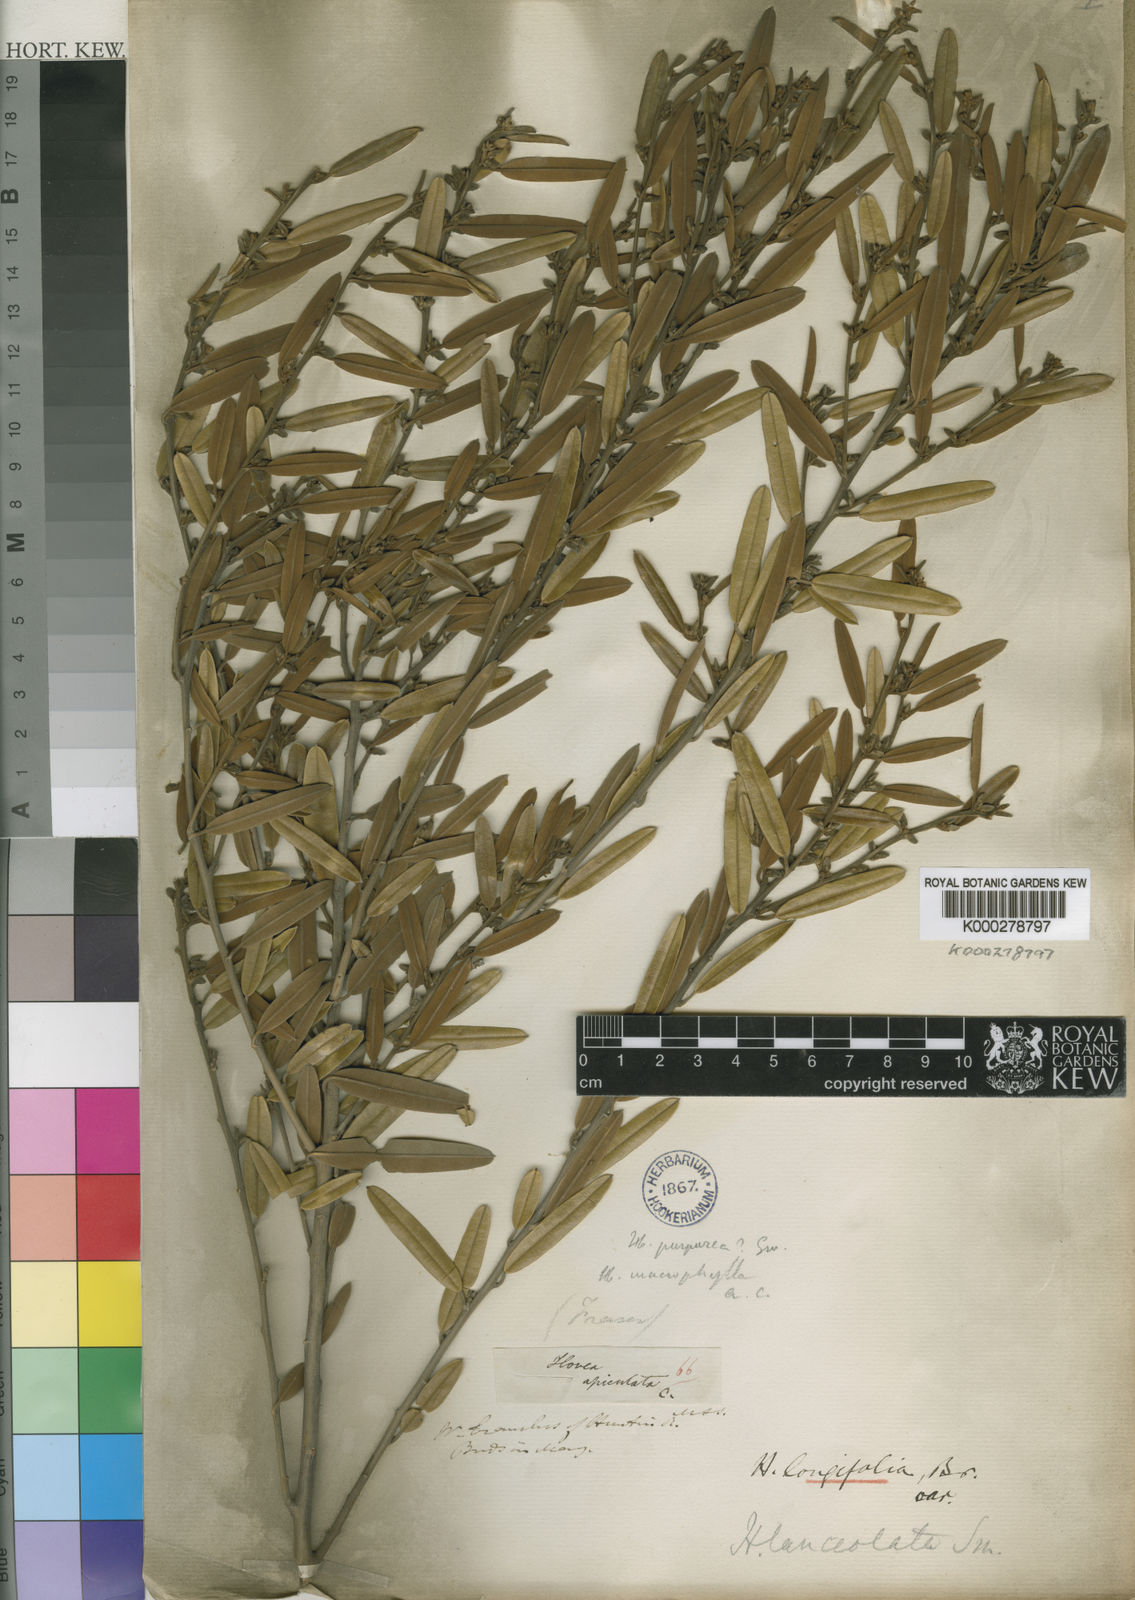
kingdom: Plantae
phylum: Tracheophyta
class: Magnoliopsida
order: Fabales
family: Fabaceae
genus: Hovea
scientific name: Hovea lanceolata
